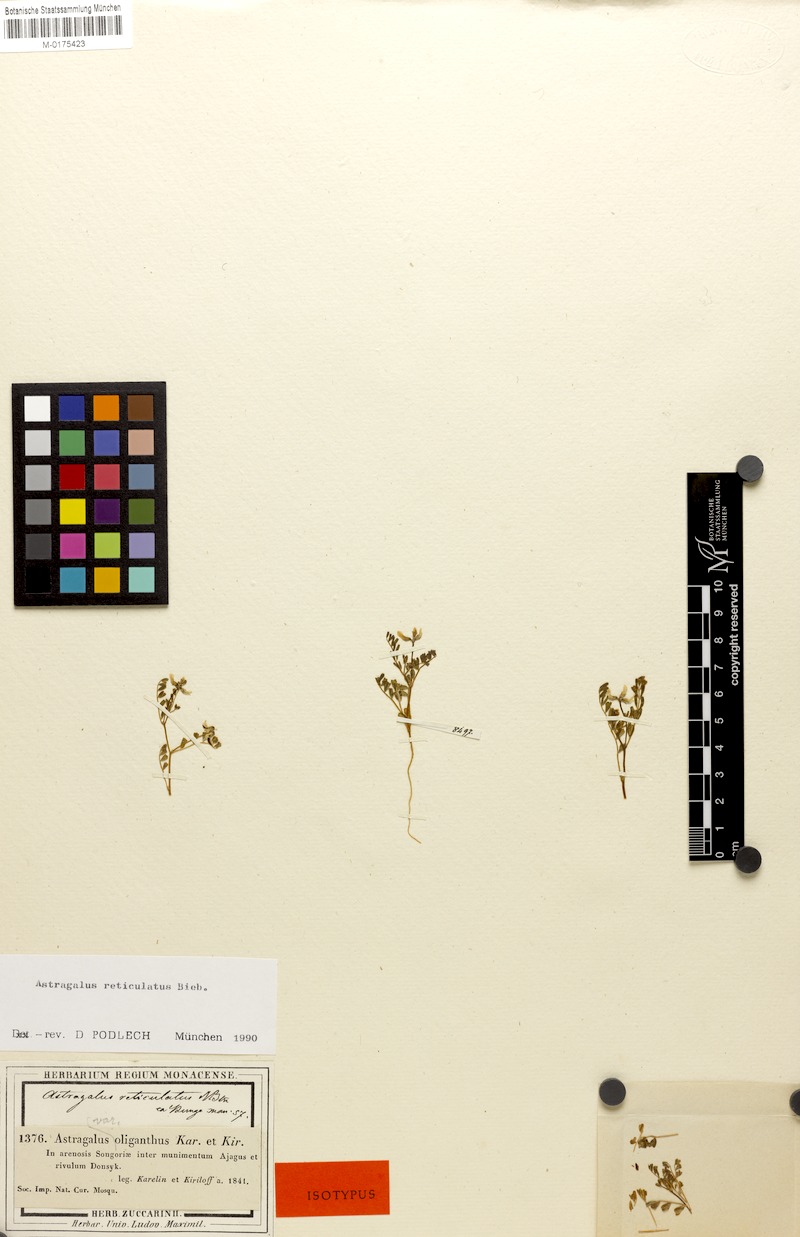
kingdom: Plantae
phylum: Tracheophyta
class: Magnoliopsida
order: Fabales
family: Fabaceae
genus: Astragalus
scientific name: Astragalus reticulatus
